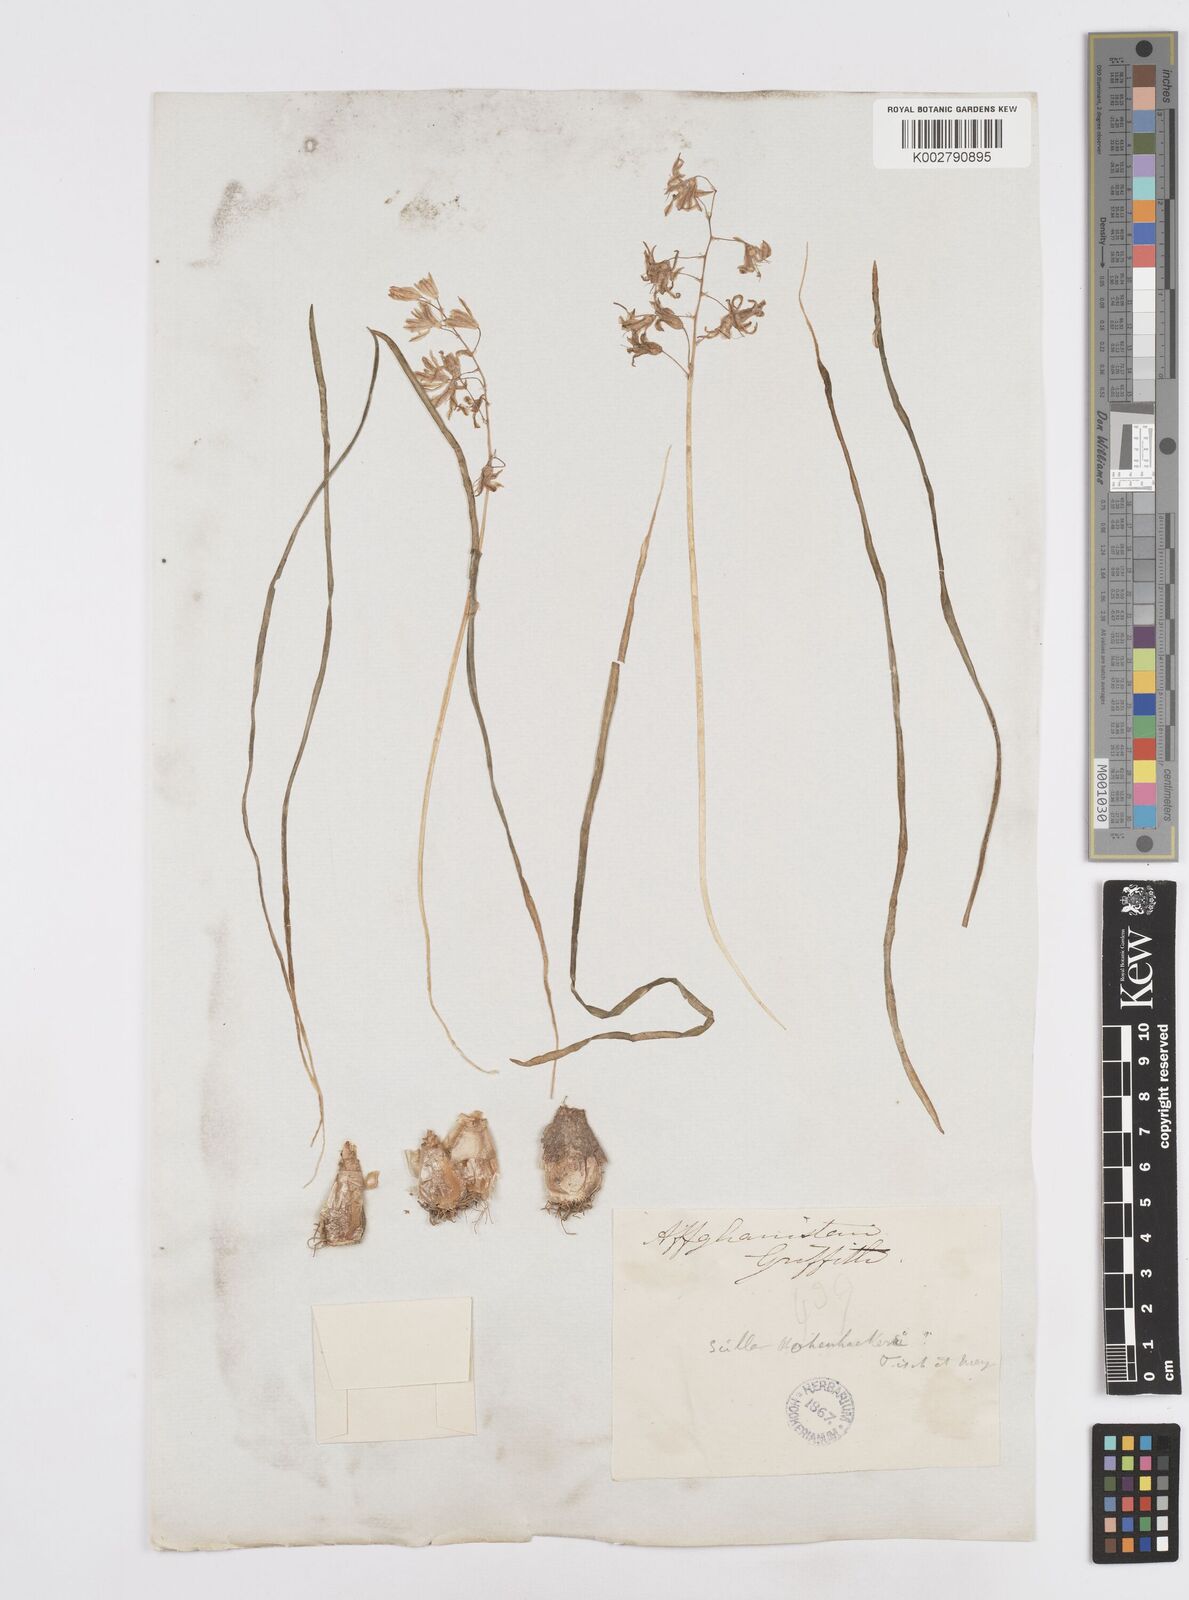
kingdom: Plantae
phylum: Tracheophyta
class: Liliopsida
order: Asparagales
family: Asparagaceae
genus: Fessia
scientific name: Fessia purpurea
